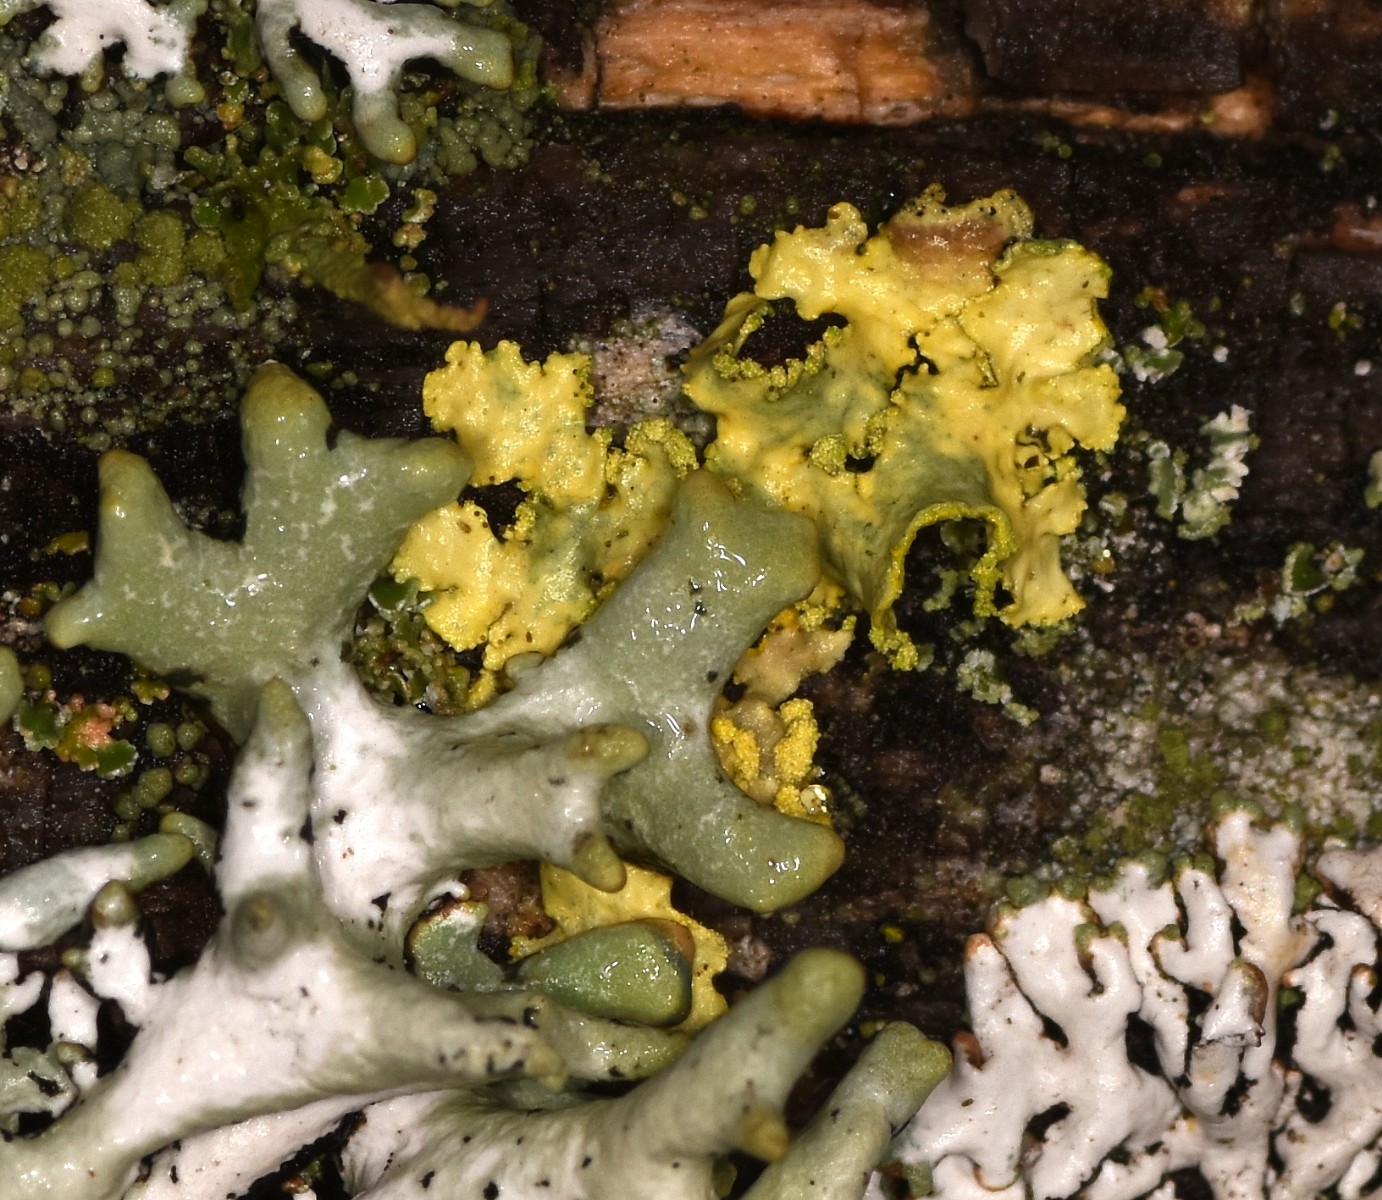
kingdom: Fungi
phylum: Ascomycota
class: Lecanoromycetes
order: Lecanorales
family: Parmeliaceae
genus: Vulpicida
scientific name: Vulpicida pinastri
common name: gul kruslav
